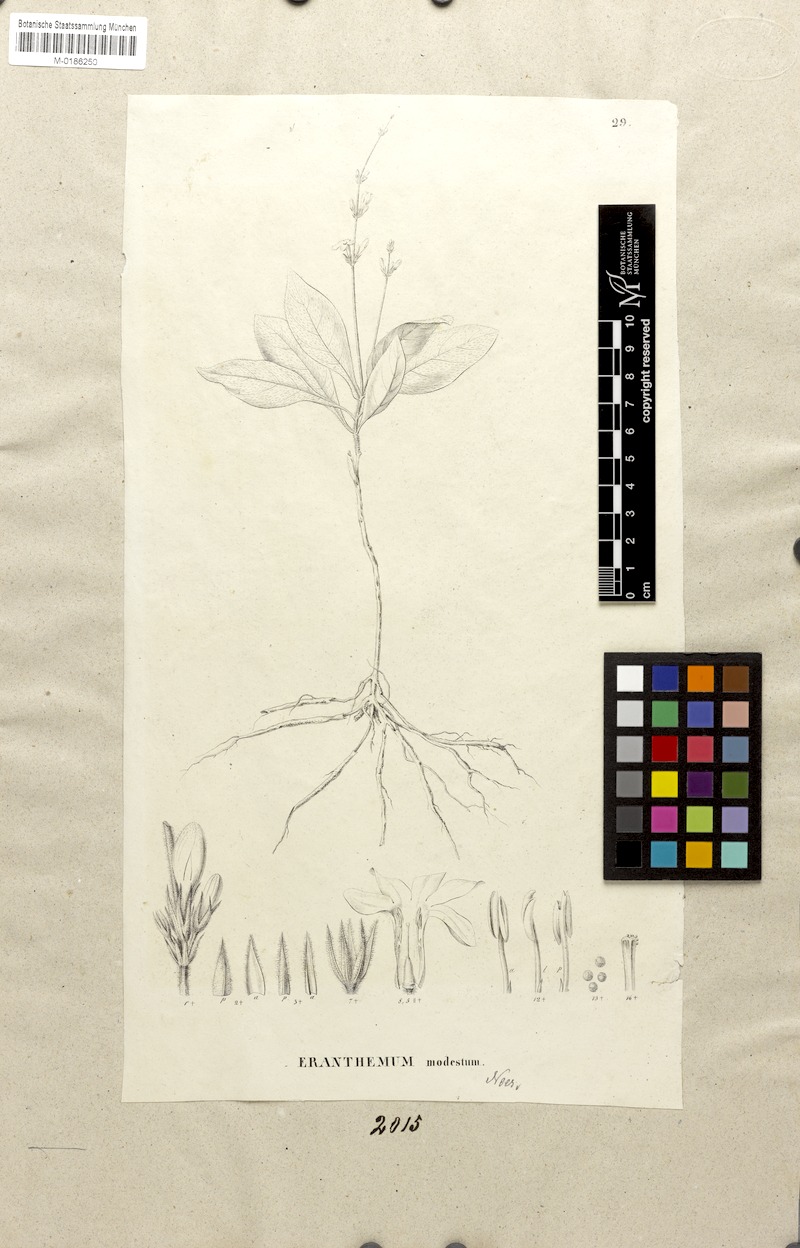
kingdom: Plantae
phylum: Tracheophyta
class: Magnoliopsida
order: Lamiales
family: Acanthaceae
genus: Pseuderanthemum
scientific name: Pseuderanthemum modestum
